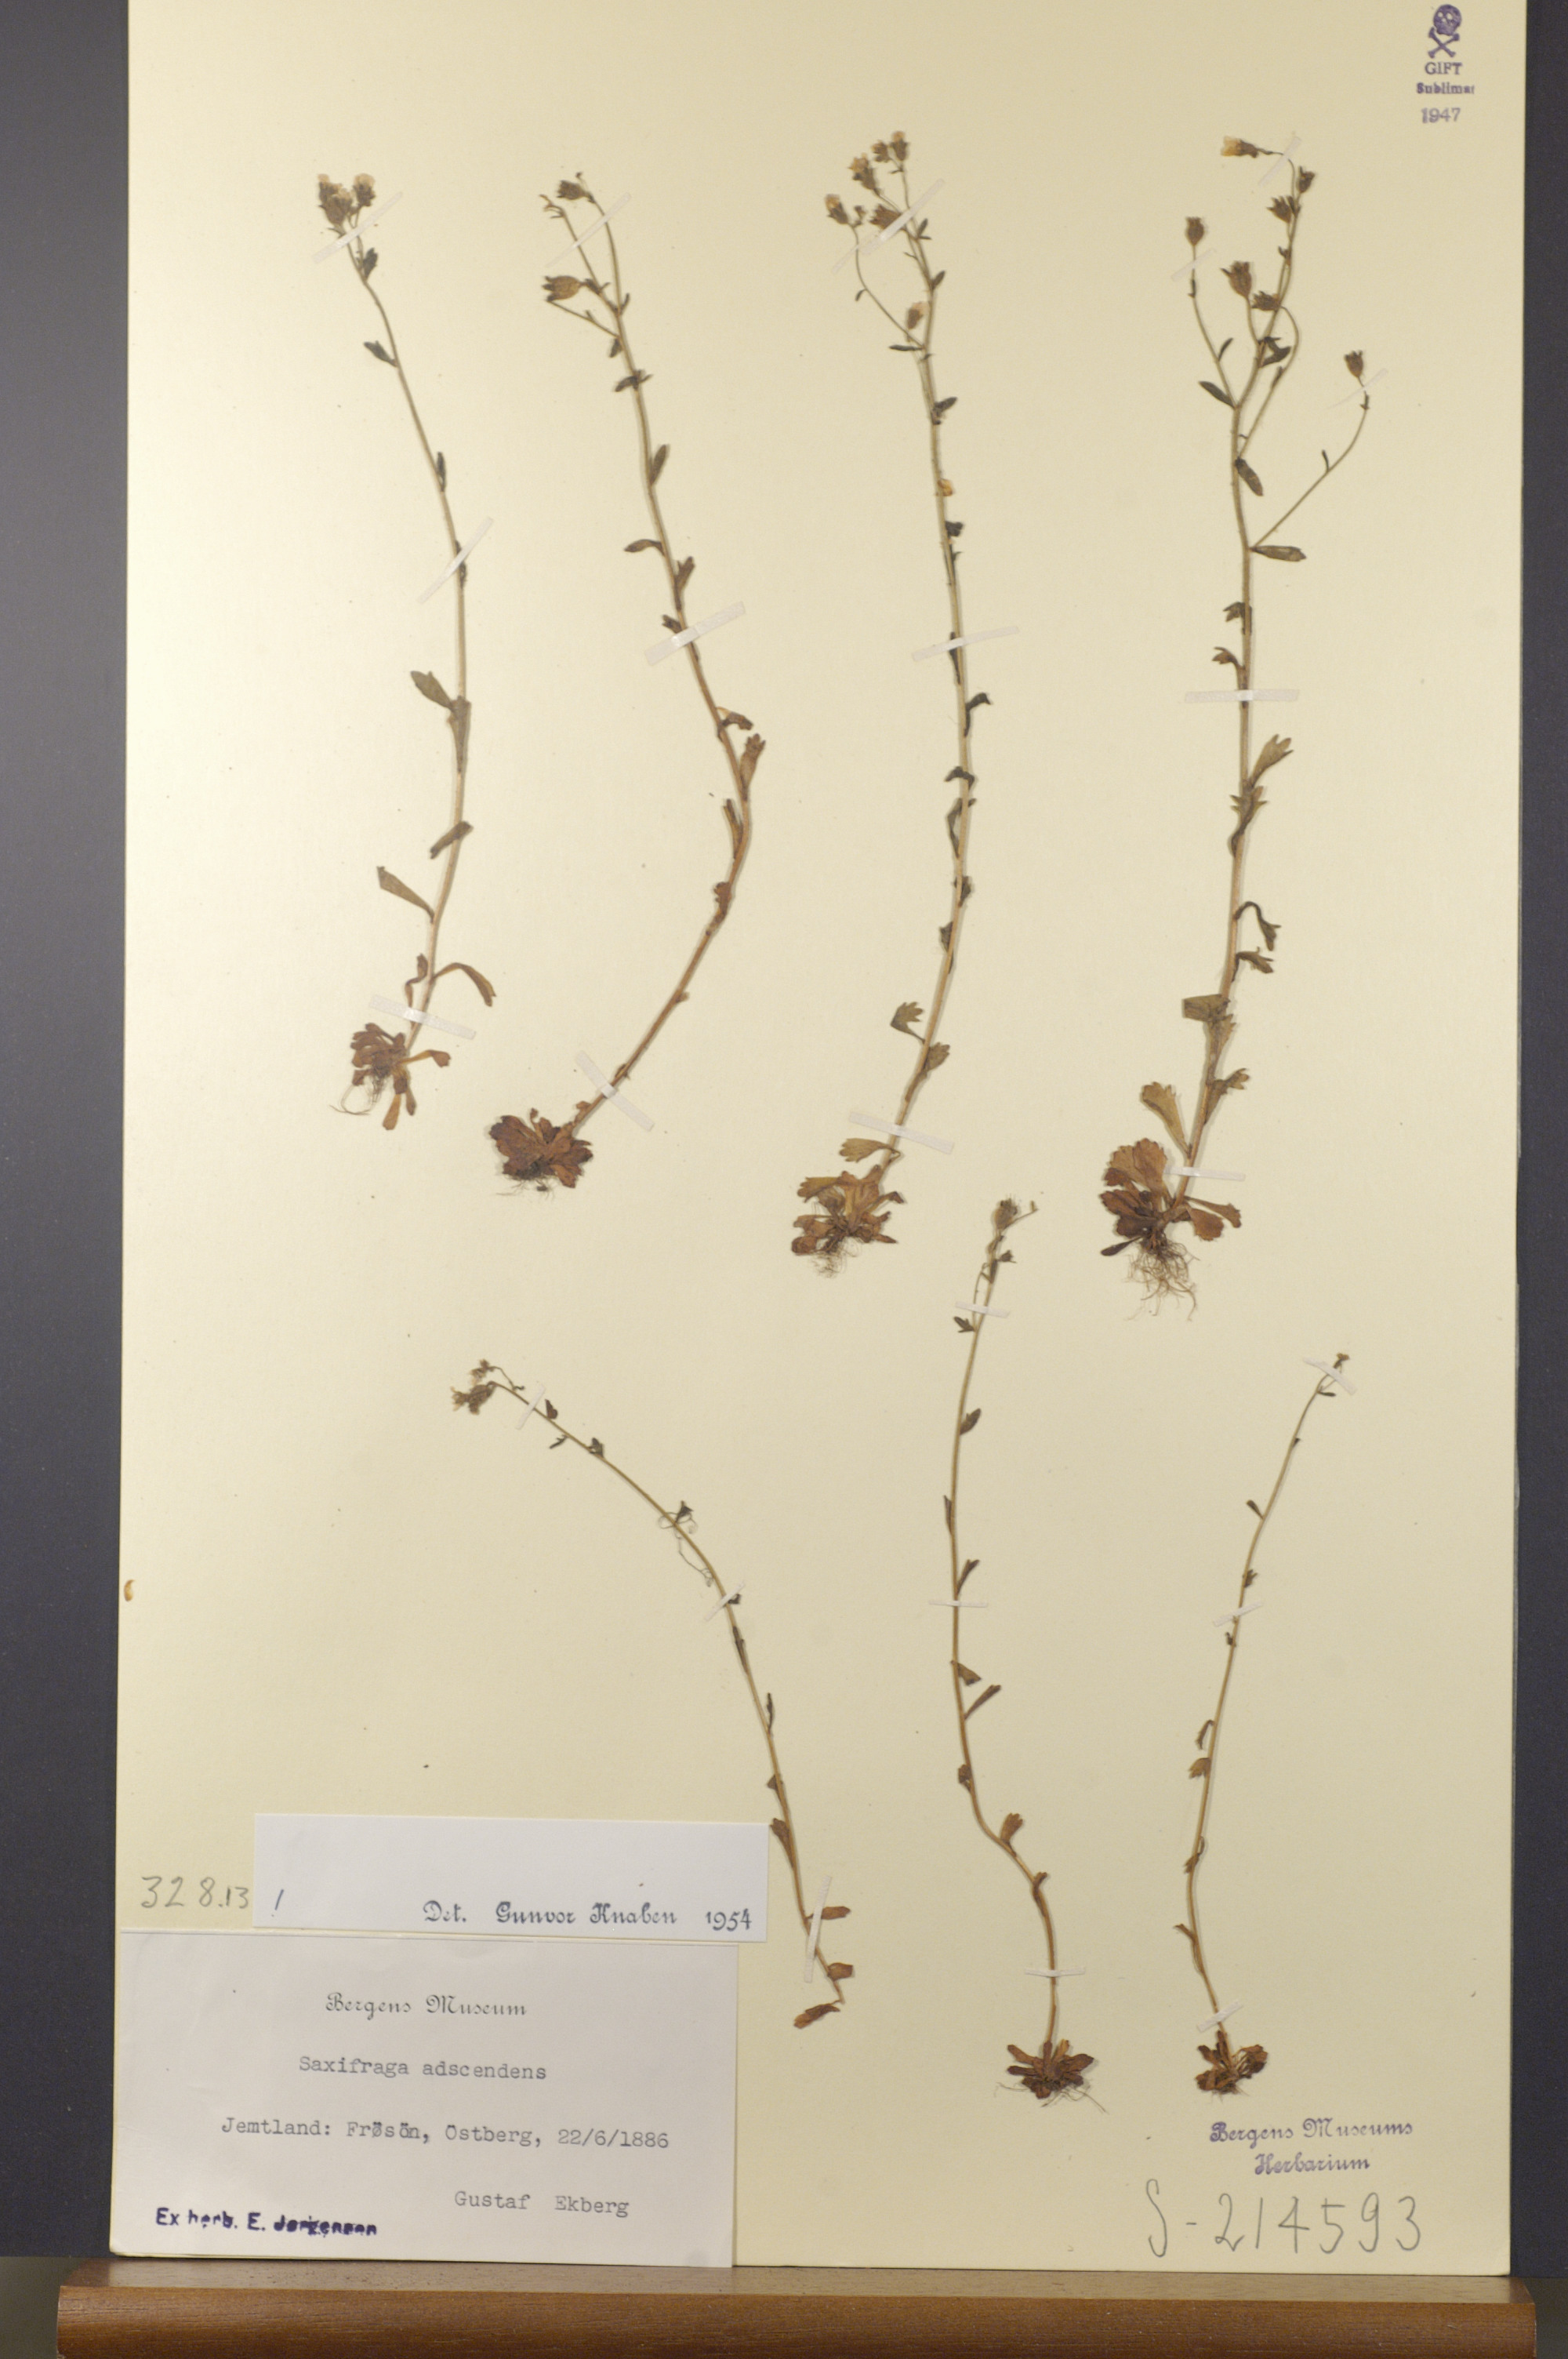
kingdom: Plantae
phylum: Tracheophyta
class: Magnoliopsida
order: Saxifragales
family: Saxifragaceae
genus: Saxifraga
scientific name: Saxifraga adscendens
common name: Ascending saxifrage
